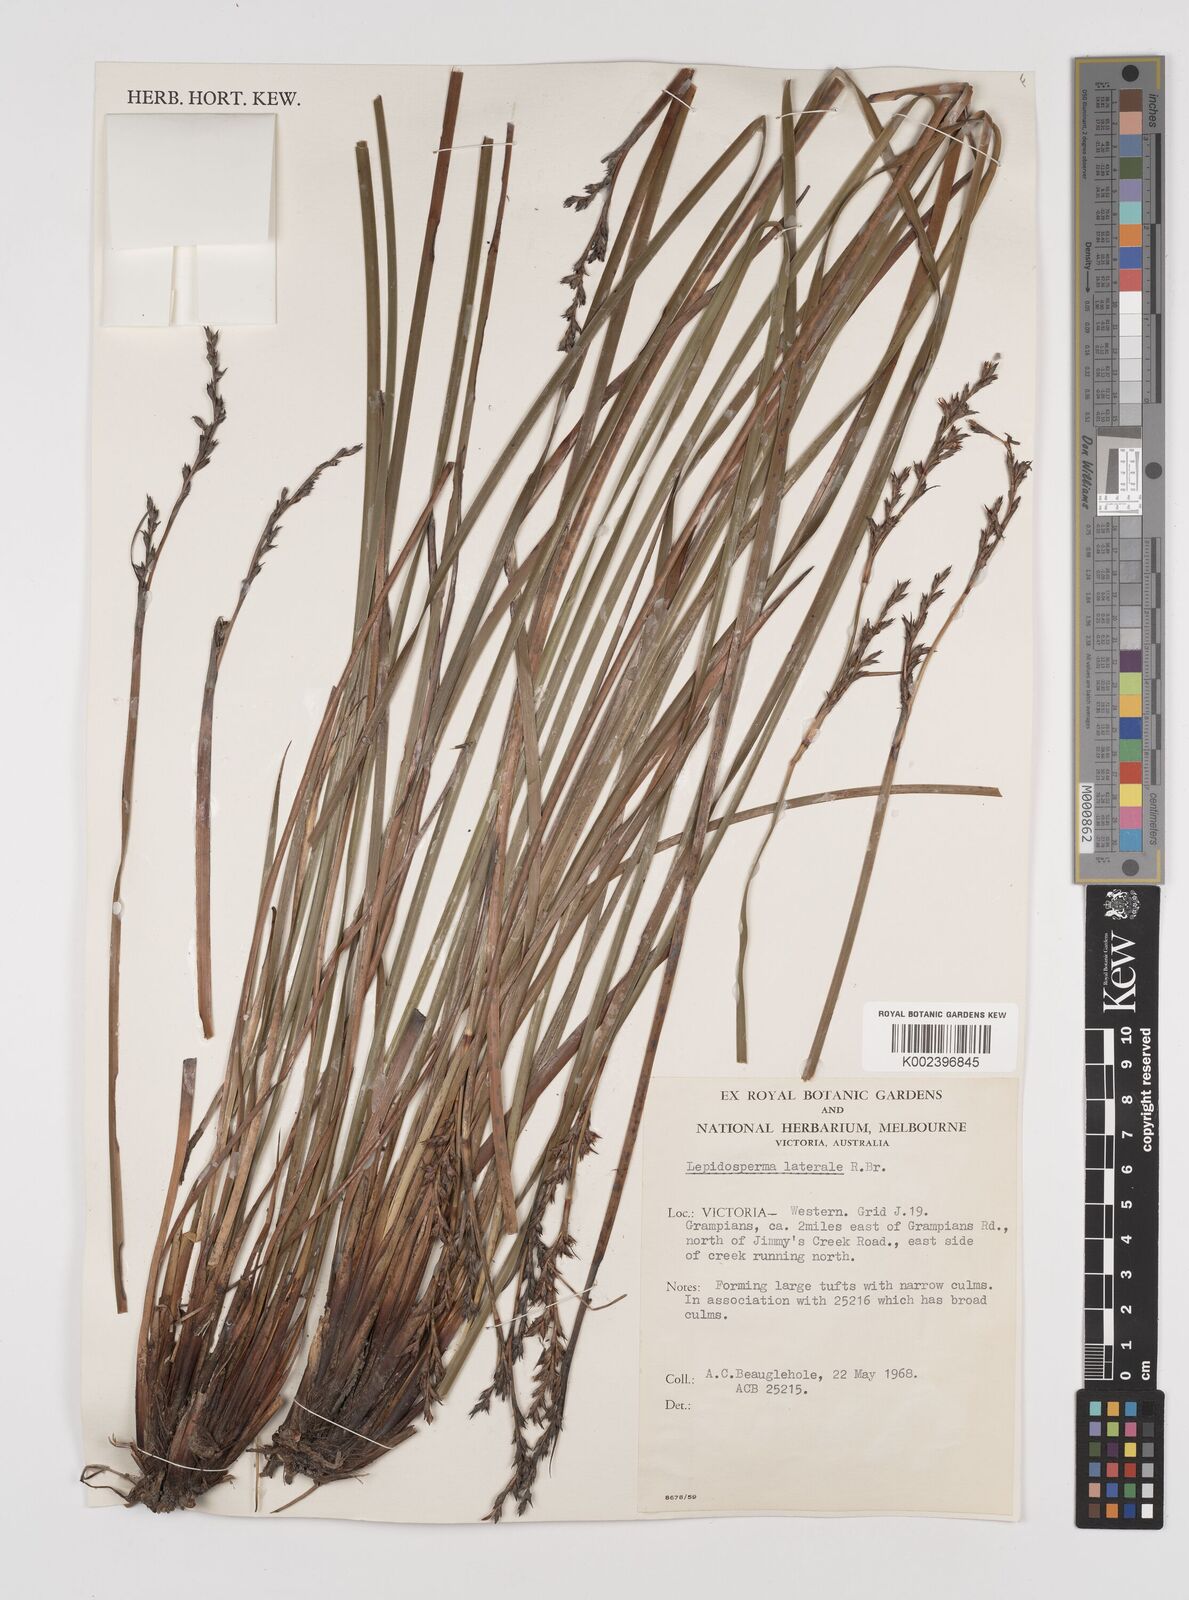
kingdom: Plantae
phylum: Tracheophyta
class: Liliopsida
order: Poales
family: Cyperaceae
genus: Lepidosperma
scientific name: Lepidosperma laterale
